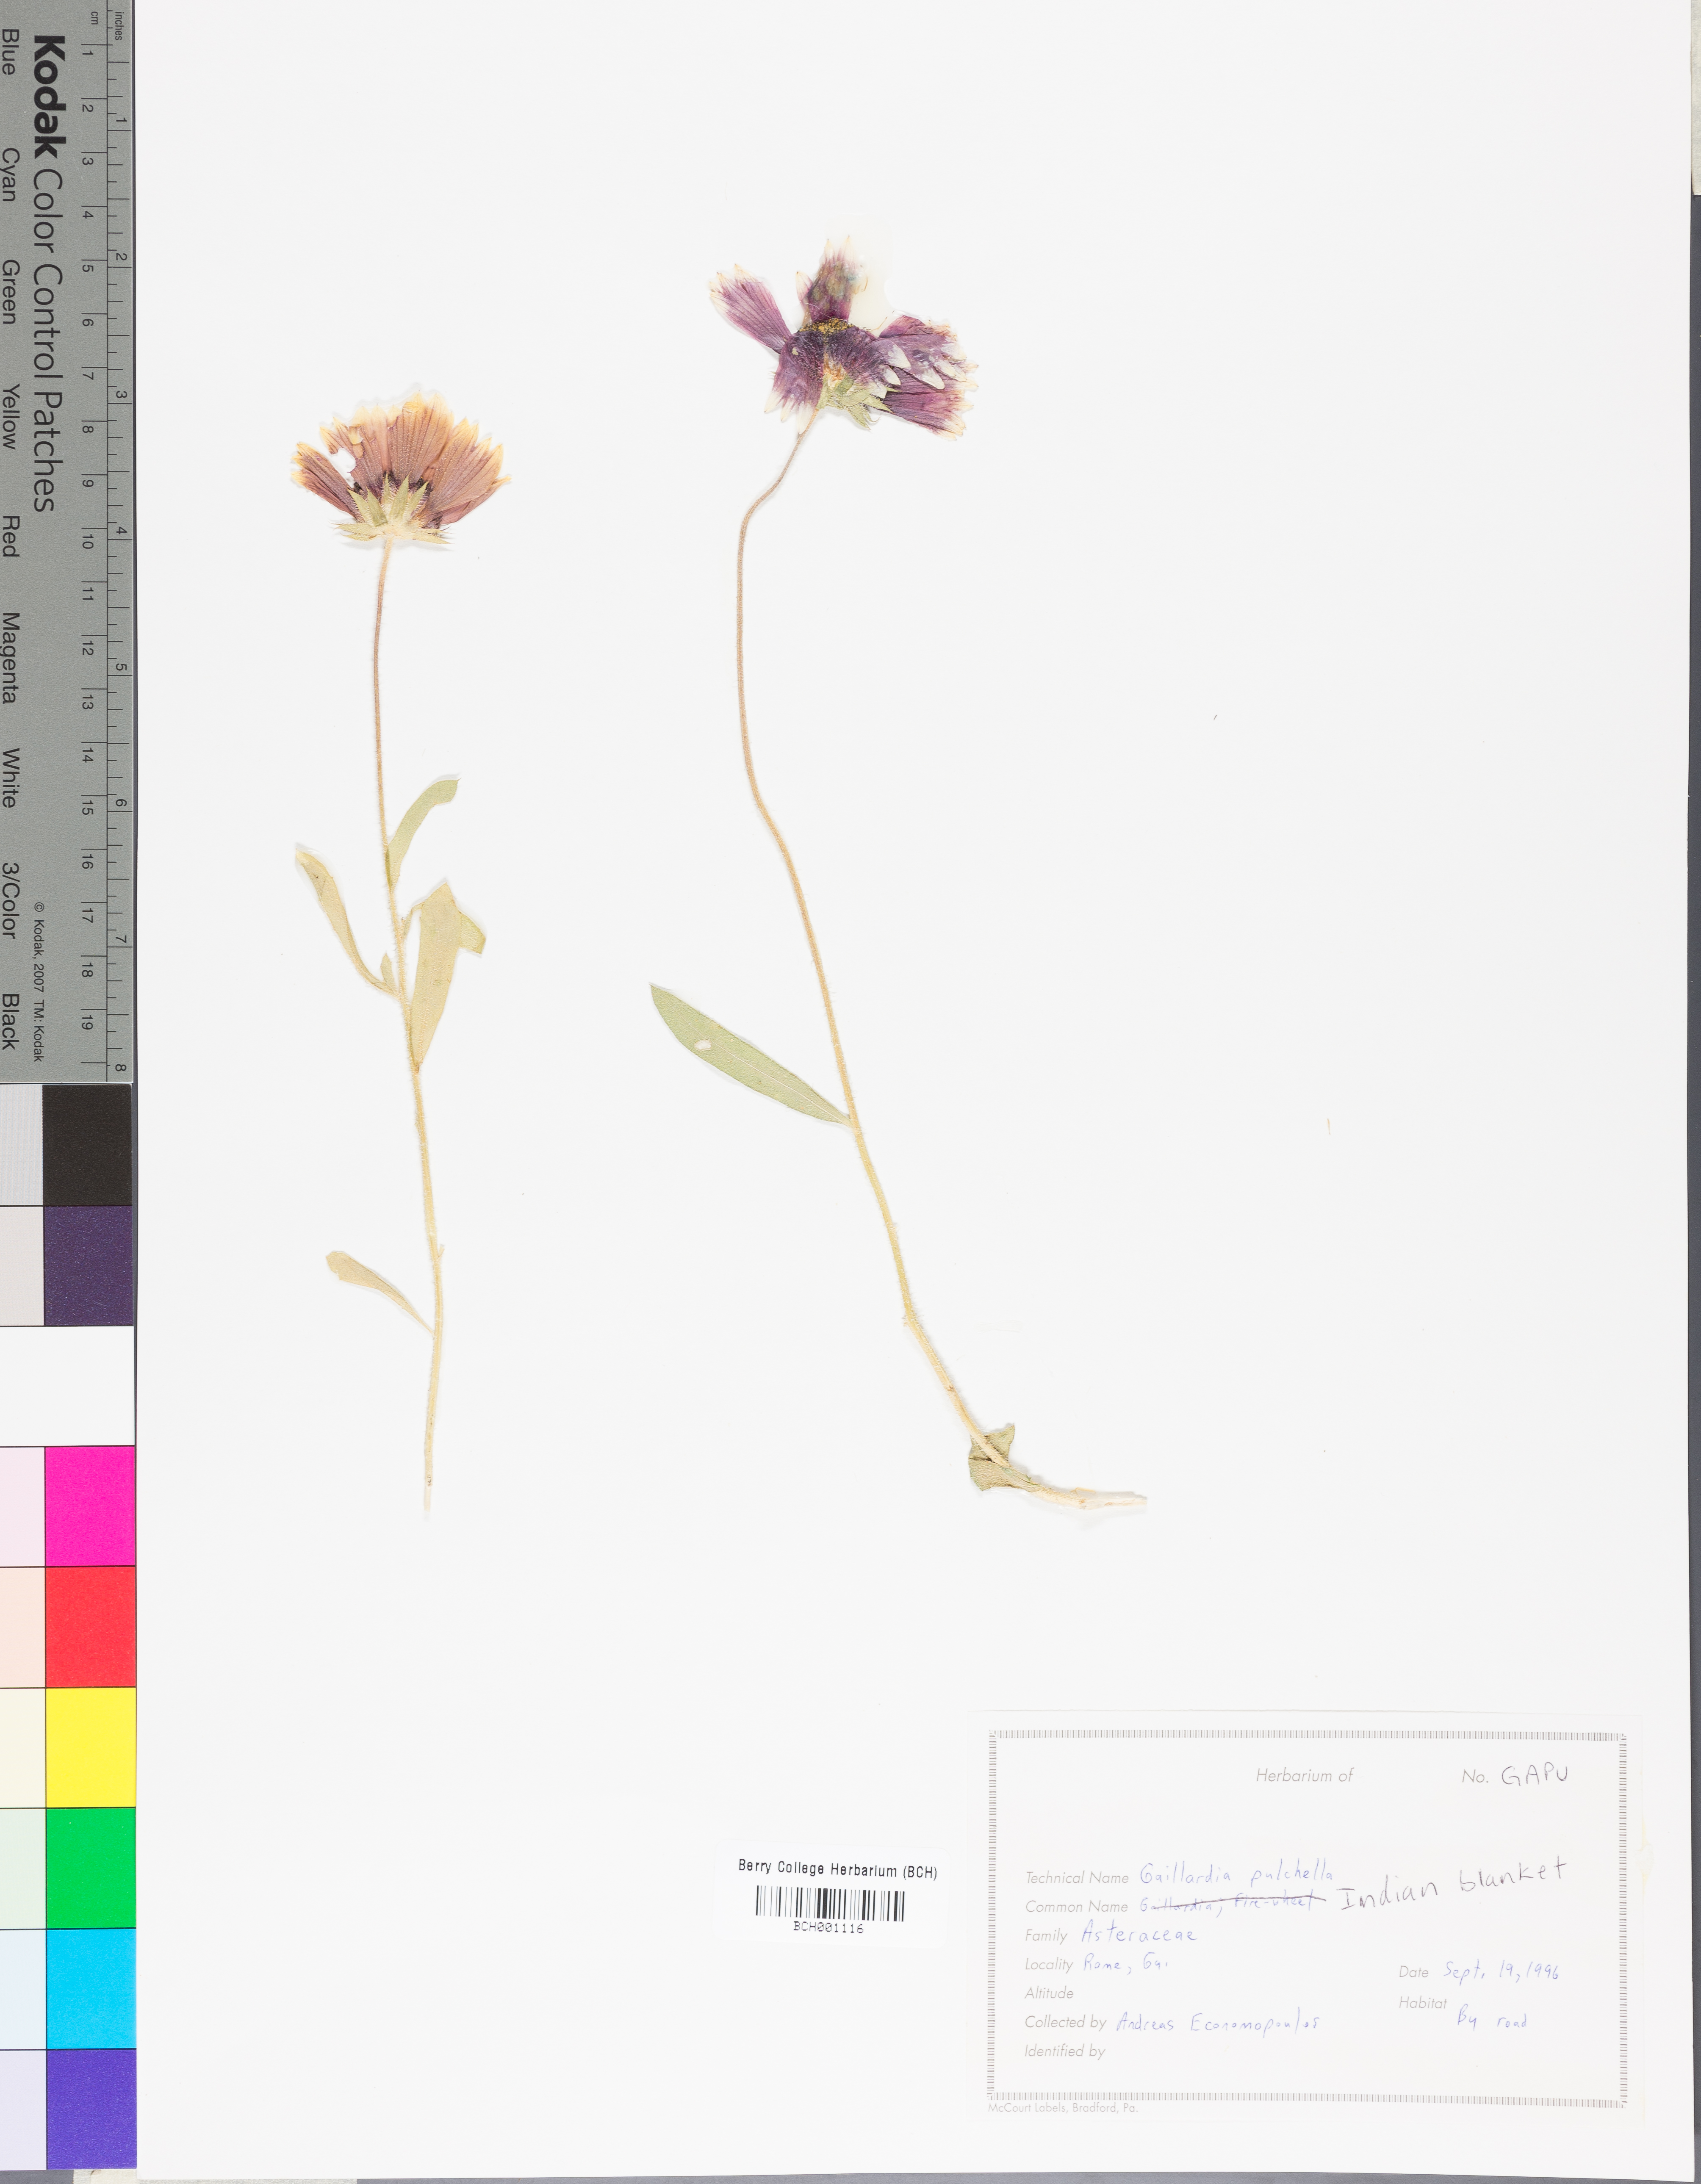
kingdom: Plantae
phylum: Tracheophyta
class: Magnoliopsida
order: Asterales
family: Asteraceae
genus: Gaillardia
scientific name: Gaillardia pulchella
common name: Firewheel
